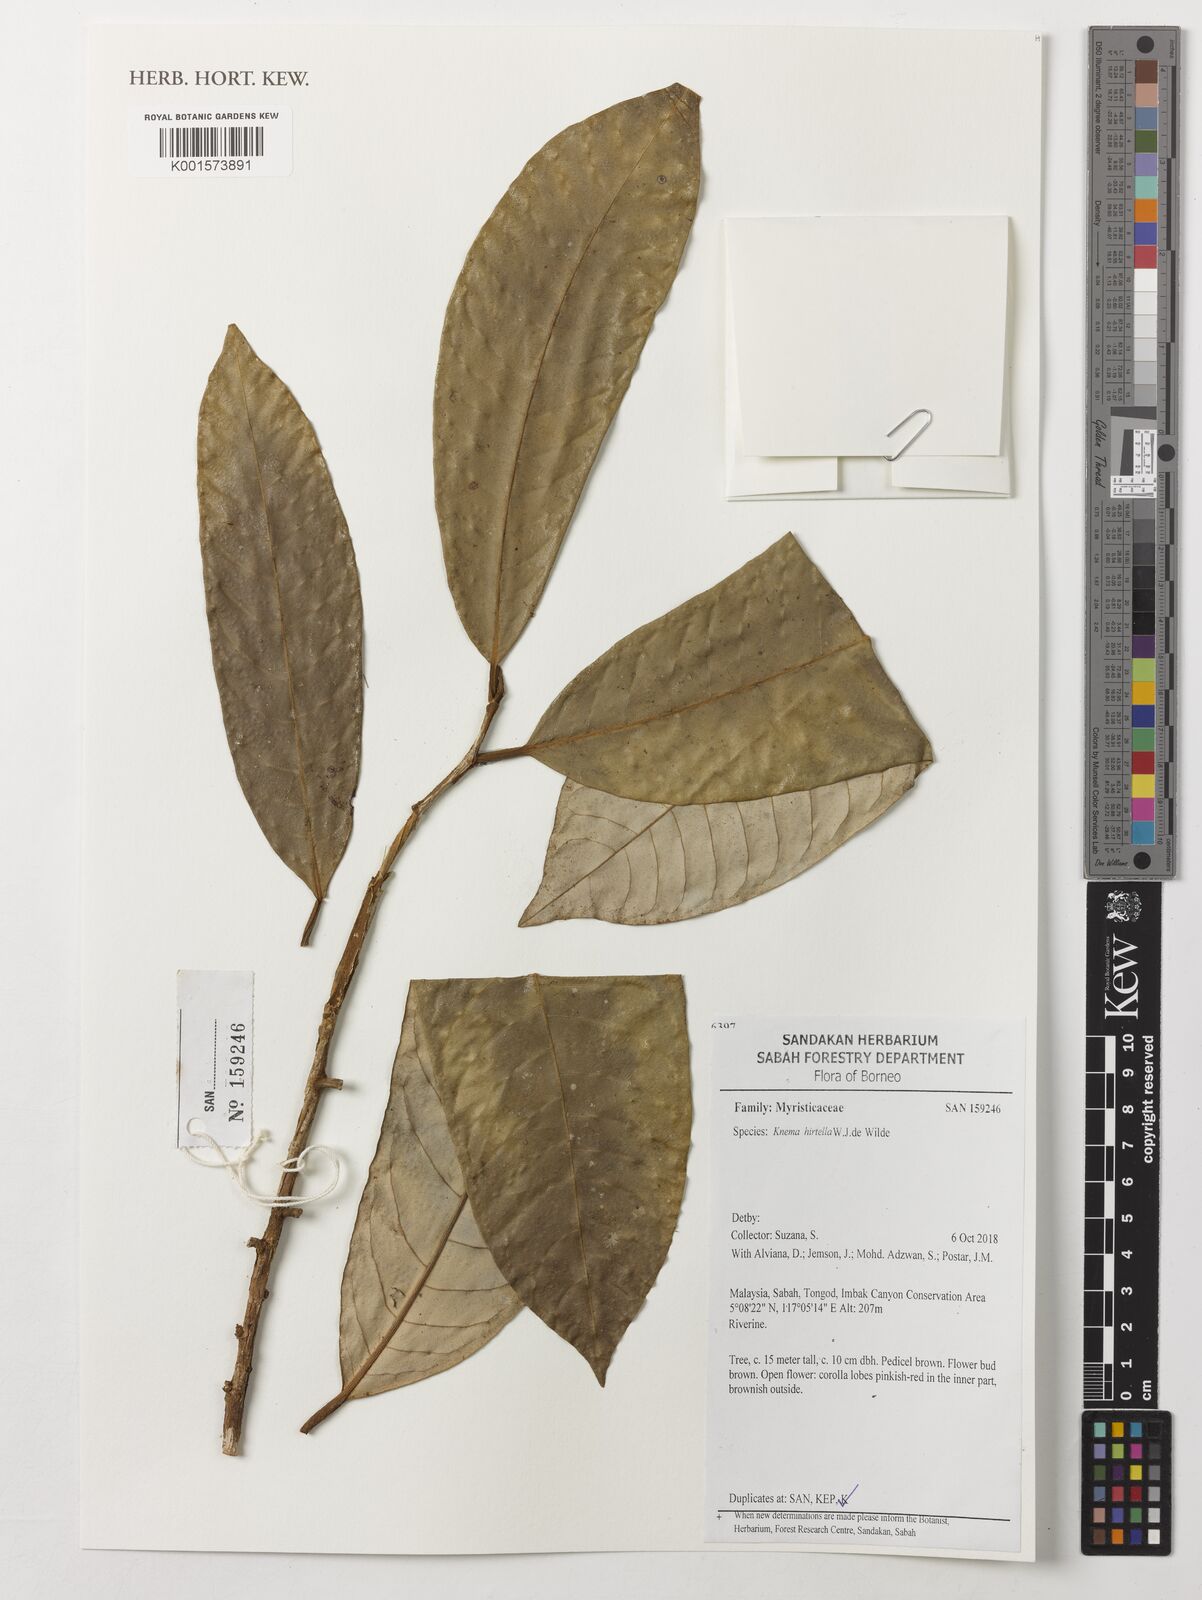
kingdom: Plantae
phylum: Tracheophyta
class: Magnoliopsida
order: Magnoliales
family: Myristicaceae
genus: Knema
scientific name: Knema hirtella
